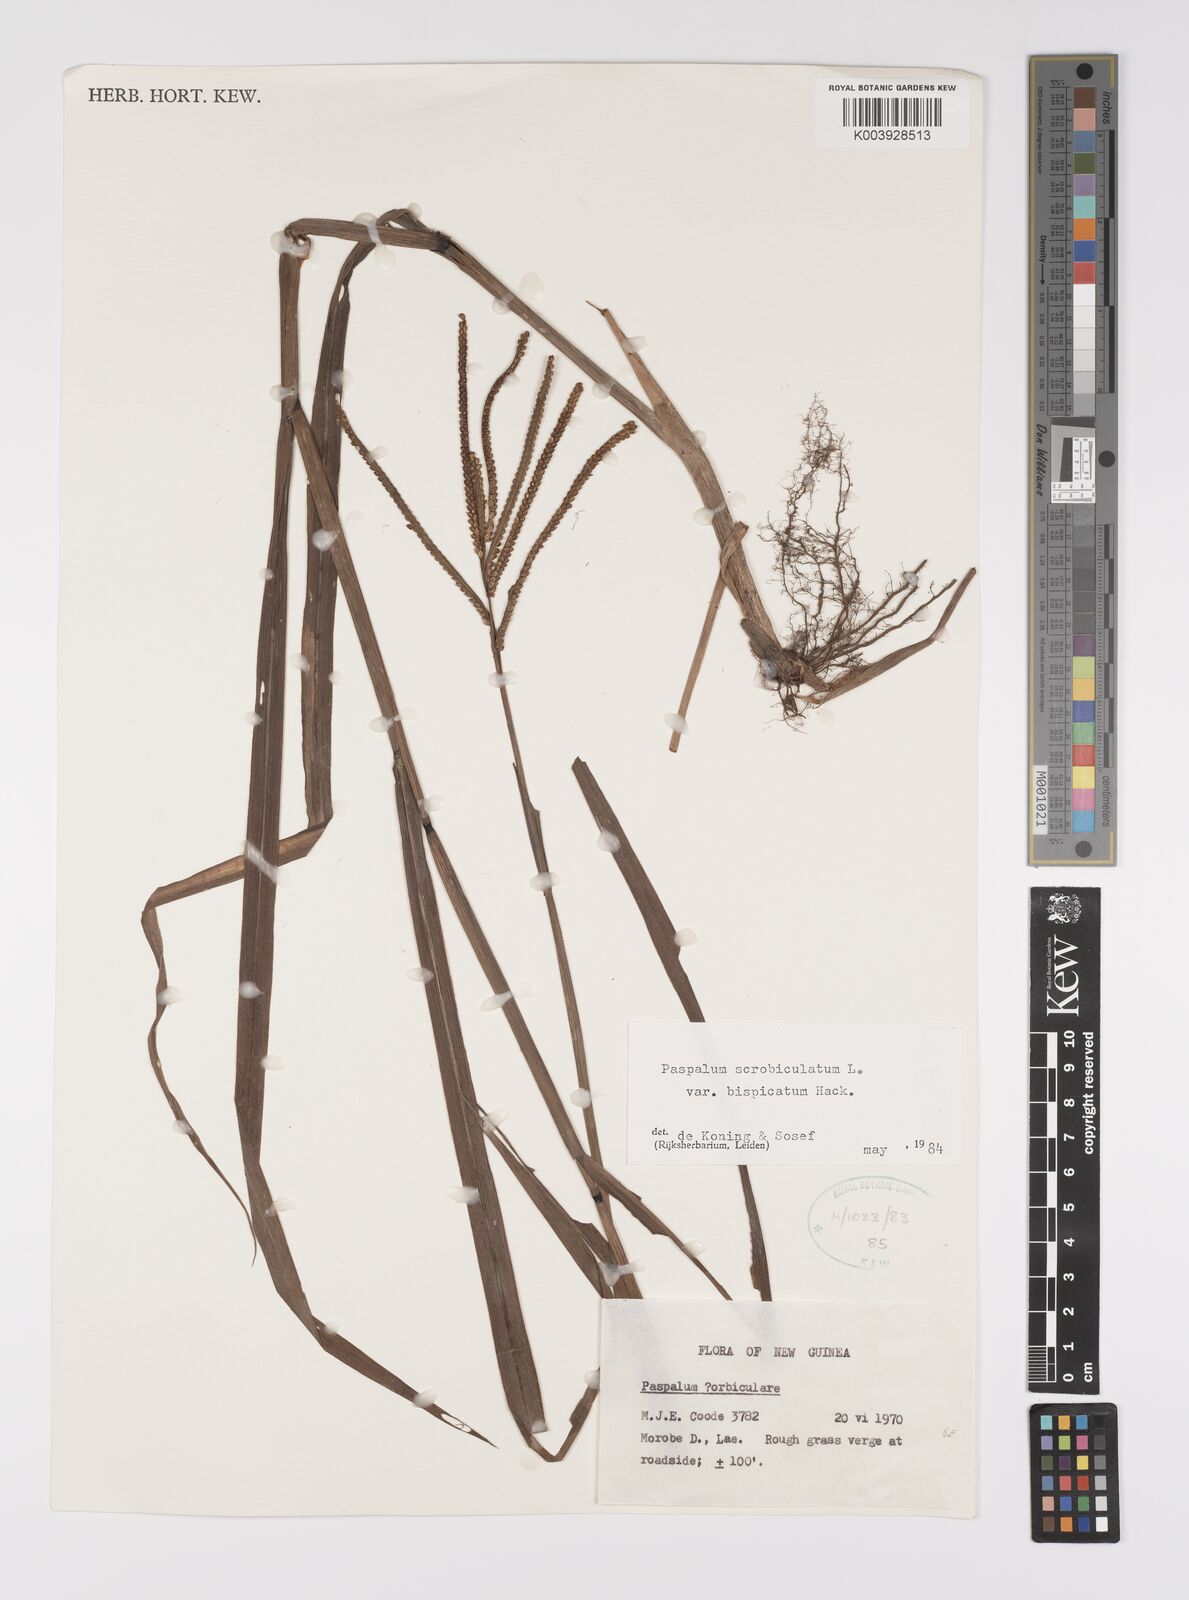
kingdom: Plantae
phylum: Tracheophyta
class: Liliopsida
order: Poales
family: Poaceae
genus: Paspalum
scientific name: Paspalum scrobiculatum
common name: Kodo millet
